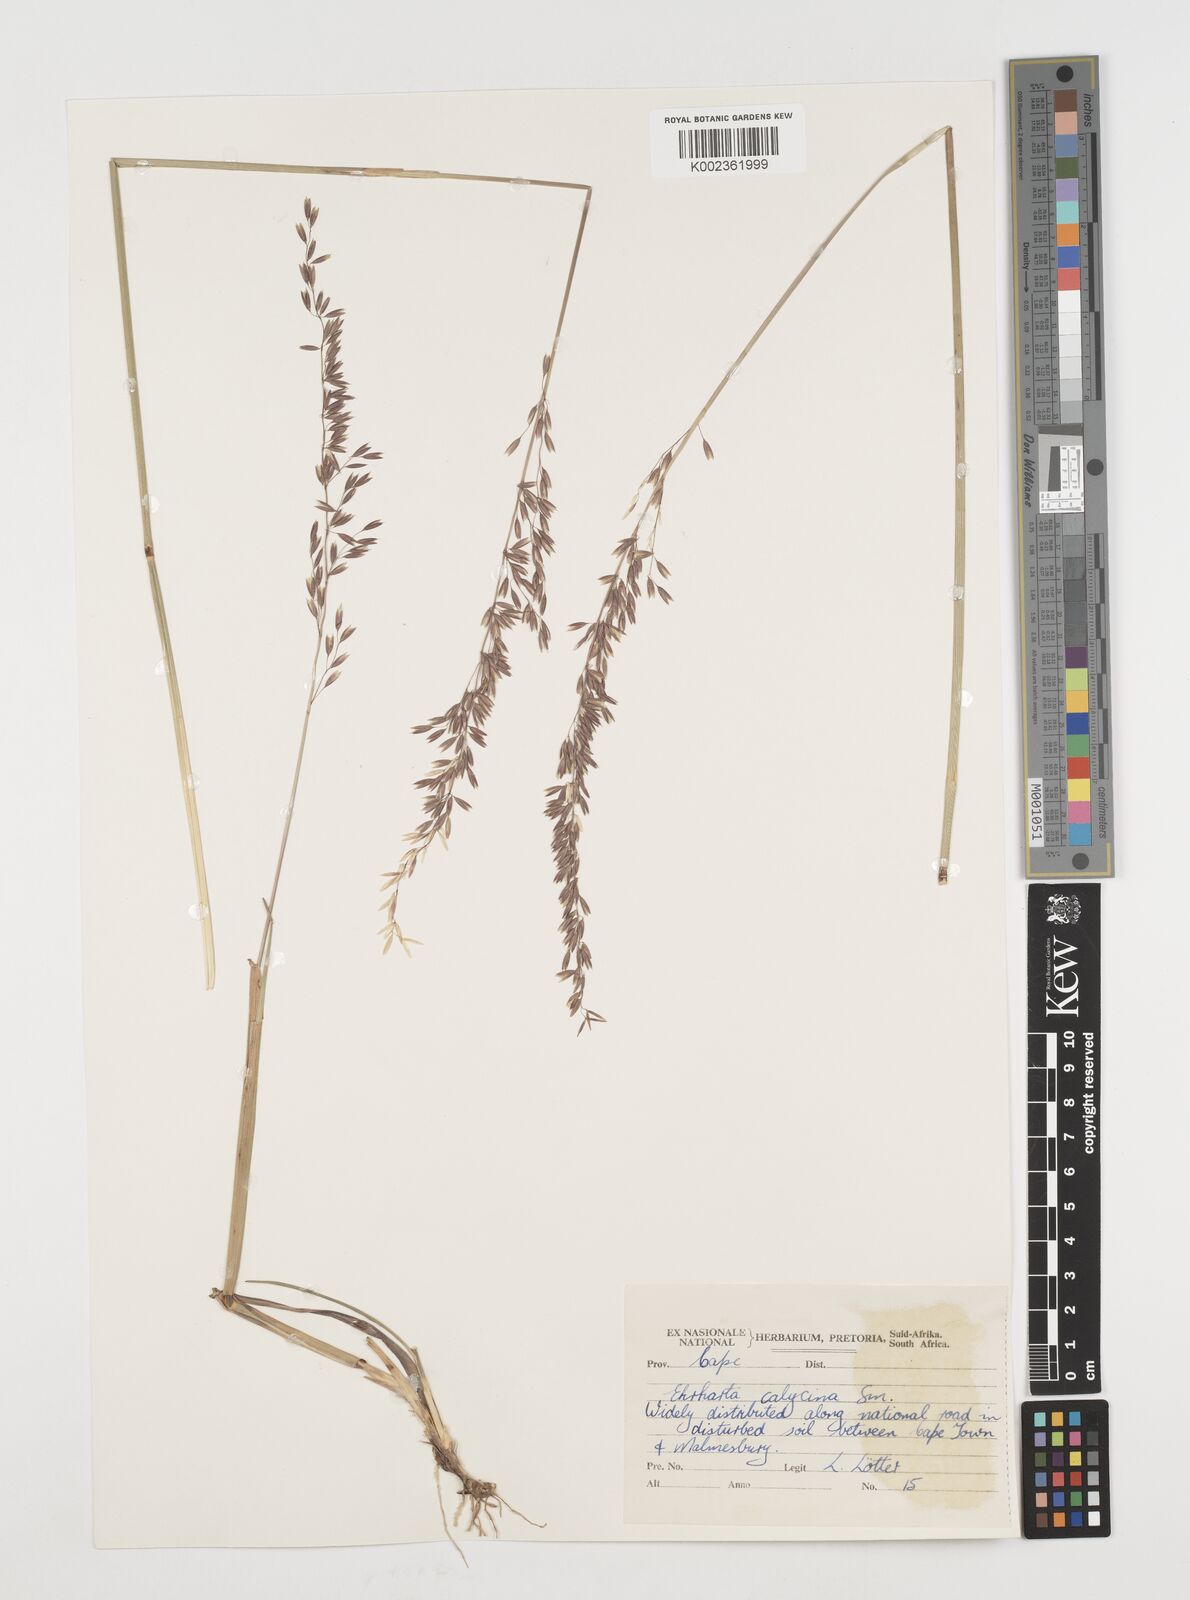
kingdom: Plantae
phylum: Tracheophyta
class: Liliopsida
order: Poales
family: Poaceae
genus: Ehrharta
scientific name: Ehrharta calycina
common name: Perennial veldtgrass
